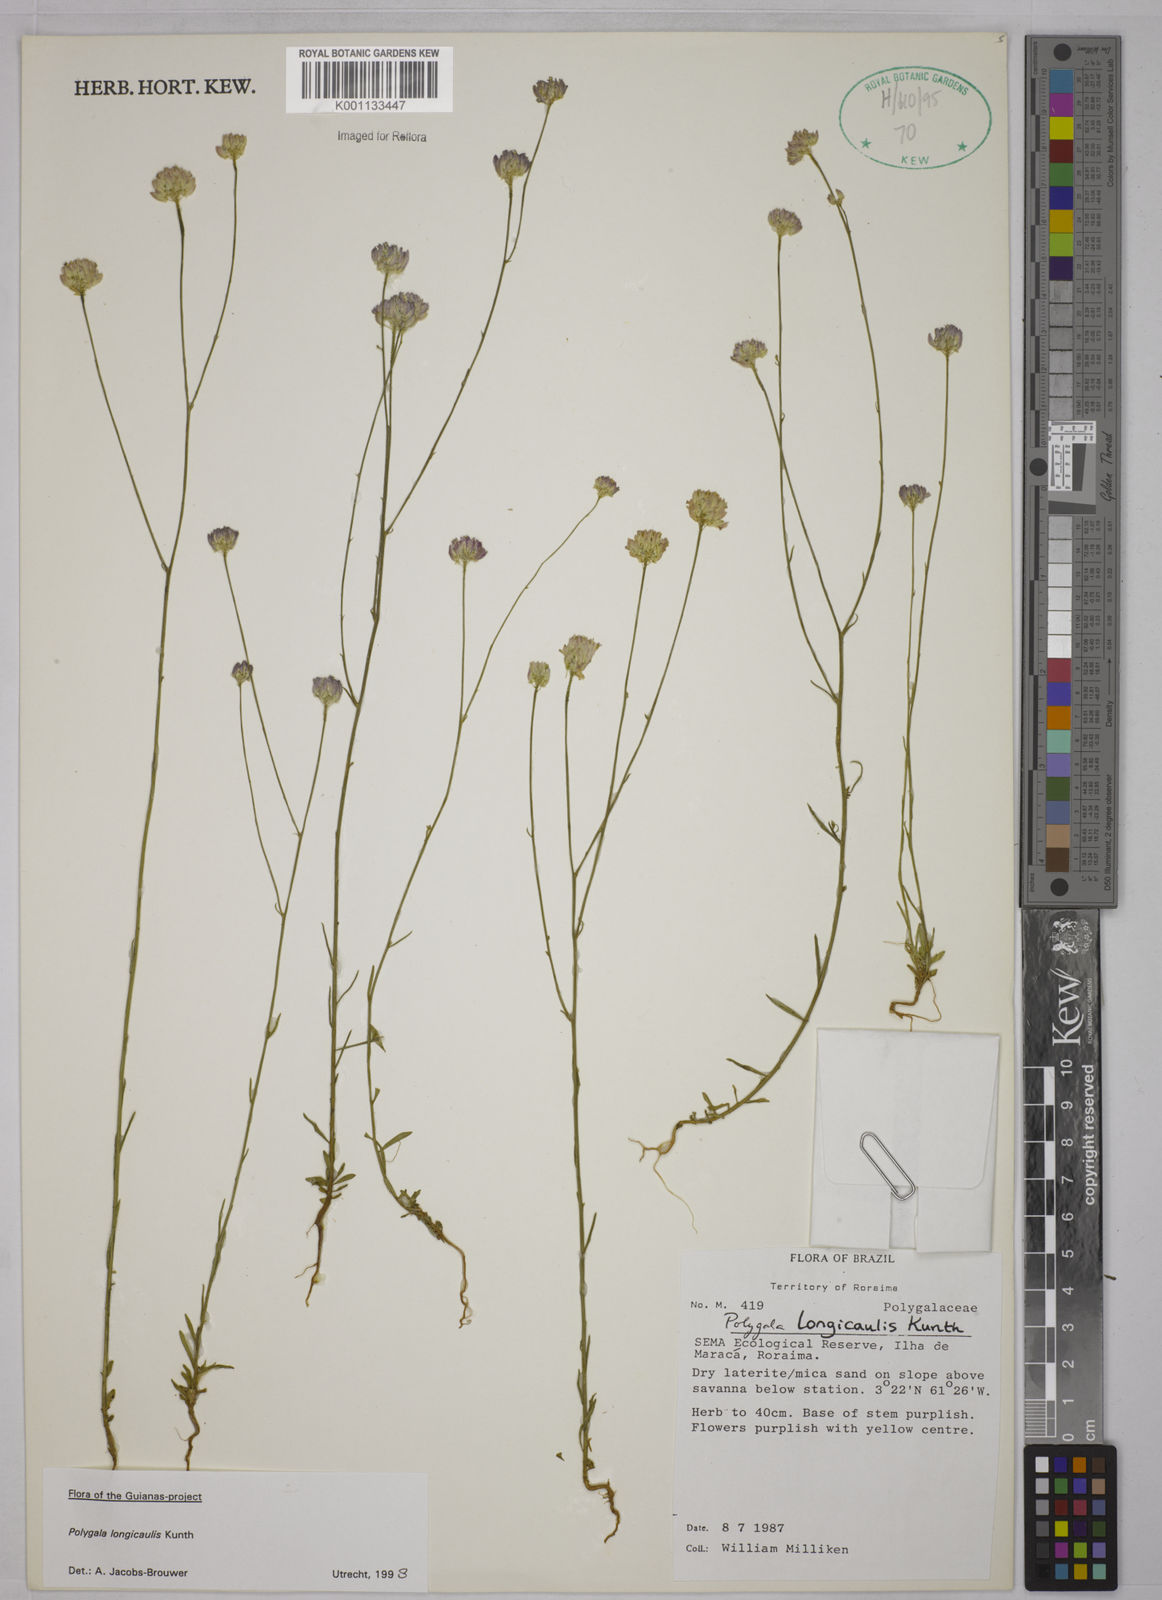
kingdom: Plantae
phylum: Tracheophyta
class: Magnoliopsida
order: Fabales
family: Polygalaceae
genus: Polygala
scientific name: Polygala longicaulis
